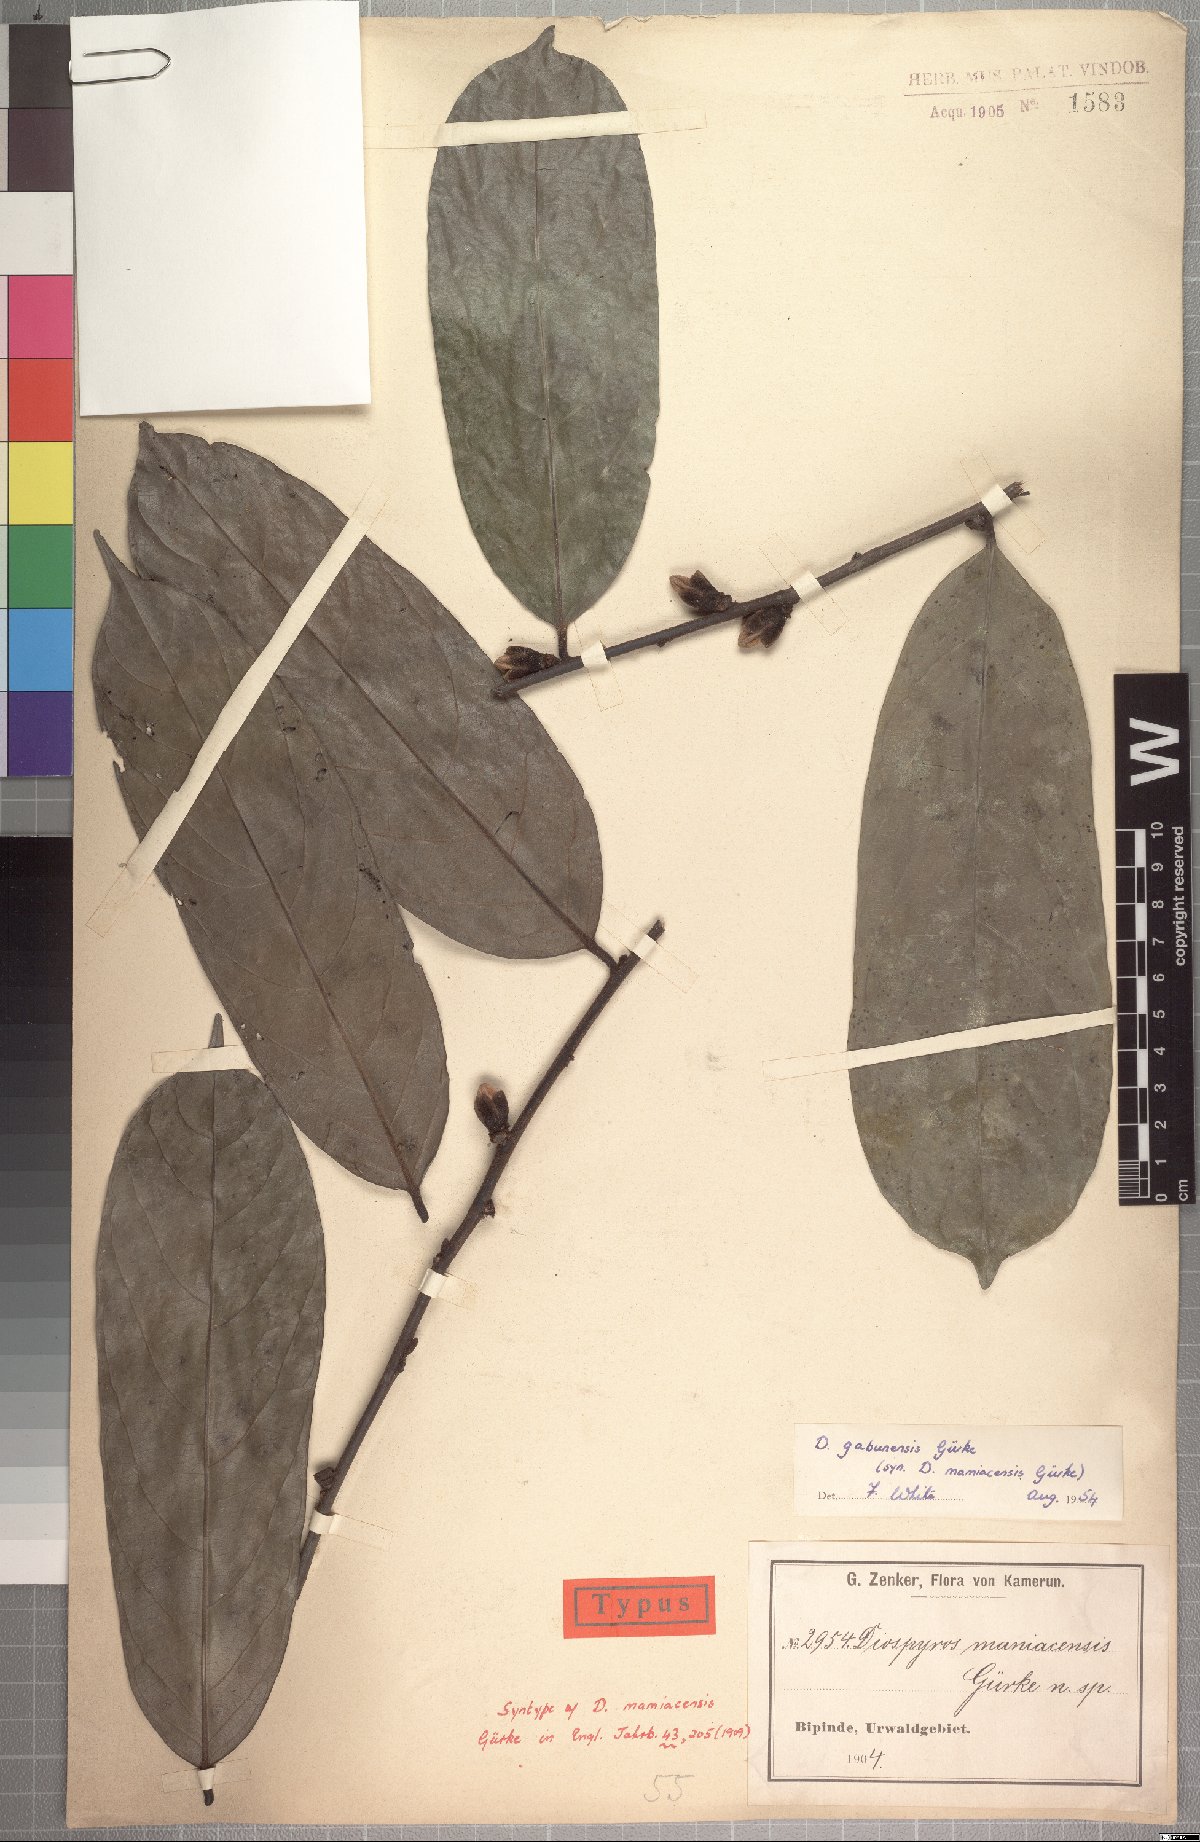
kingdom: Plantae
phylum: Tracheophyta
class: Magnoliopsida
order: Ericales
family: Ebenaceae
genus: Diospyros
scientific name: Diospyros gabunensis
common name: Flint bark tree
